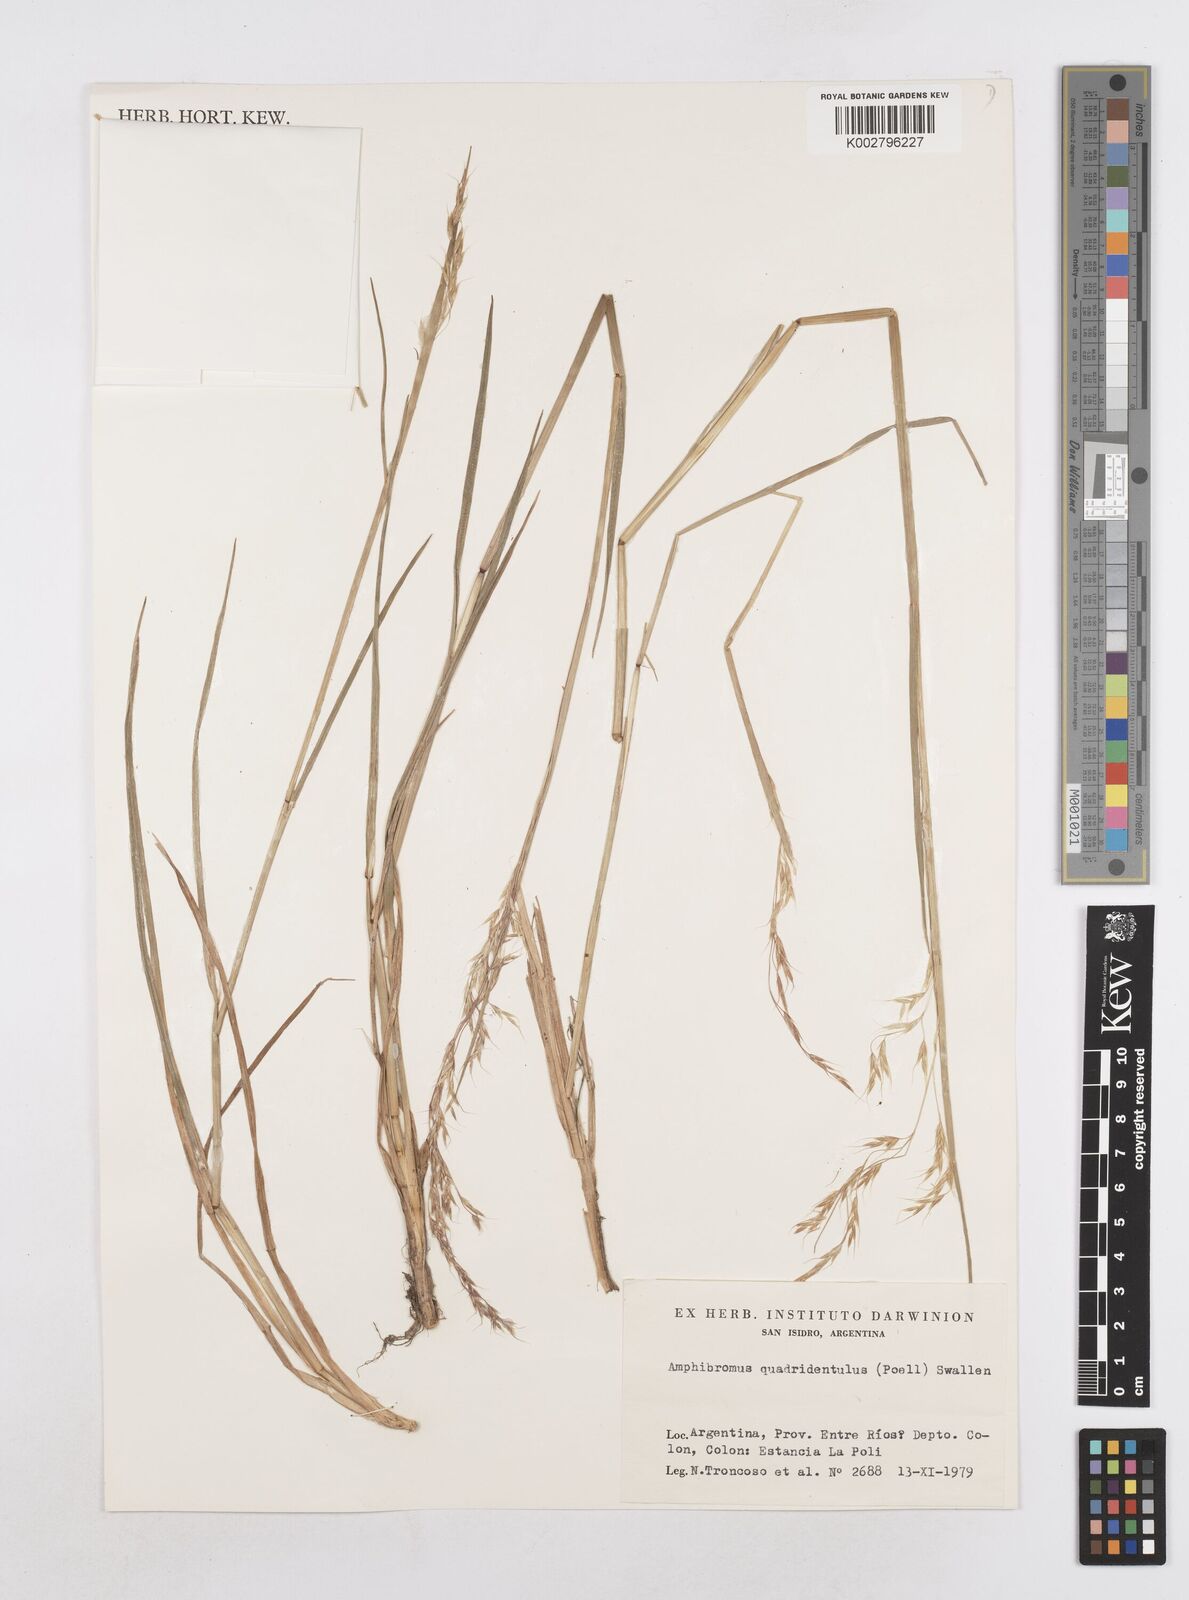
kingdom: Plantae
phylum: Tracheophyta
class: Liliopsida
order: Poales
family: Poaceae
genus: Helictotrichon
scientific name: Helictotrichon
